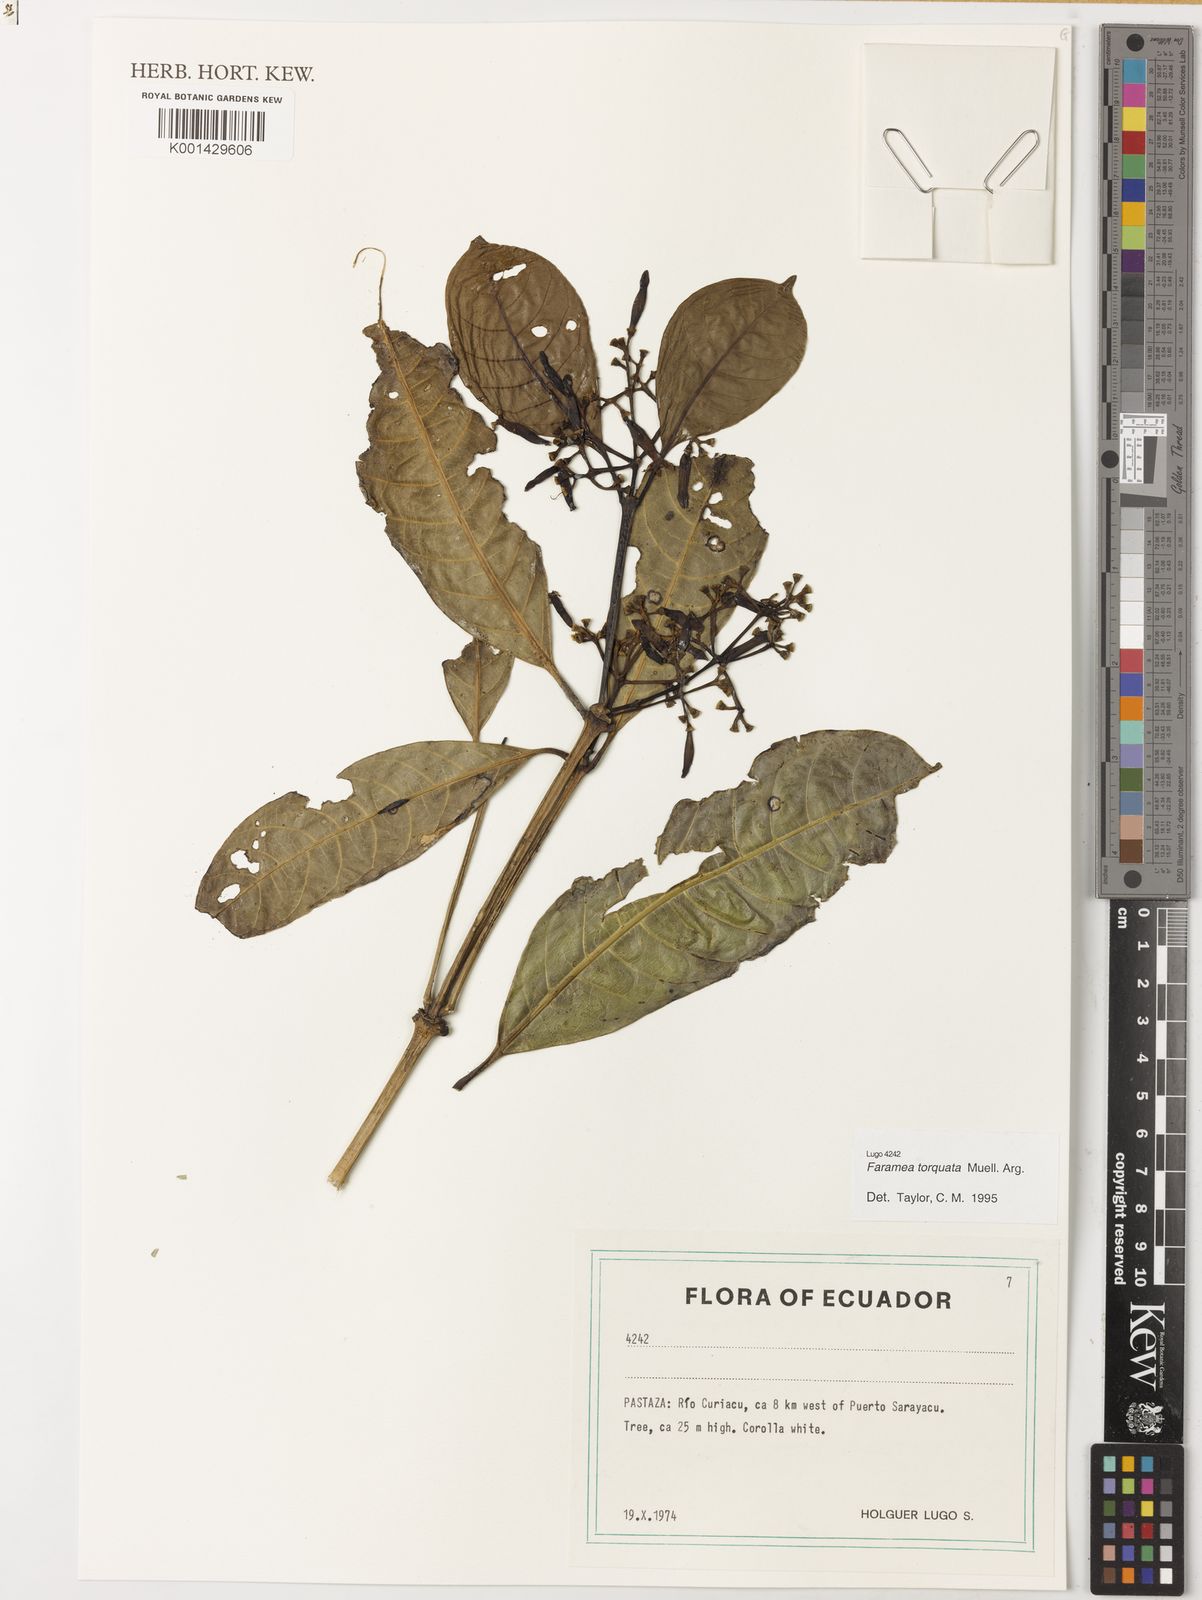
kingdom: Plantae
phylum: Tracheophyta
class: Magnoliopsida
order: Gentianales
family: Rubiaceae
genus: Faramea
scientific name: Faramea
